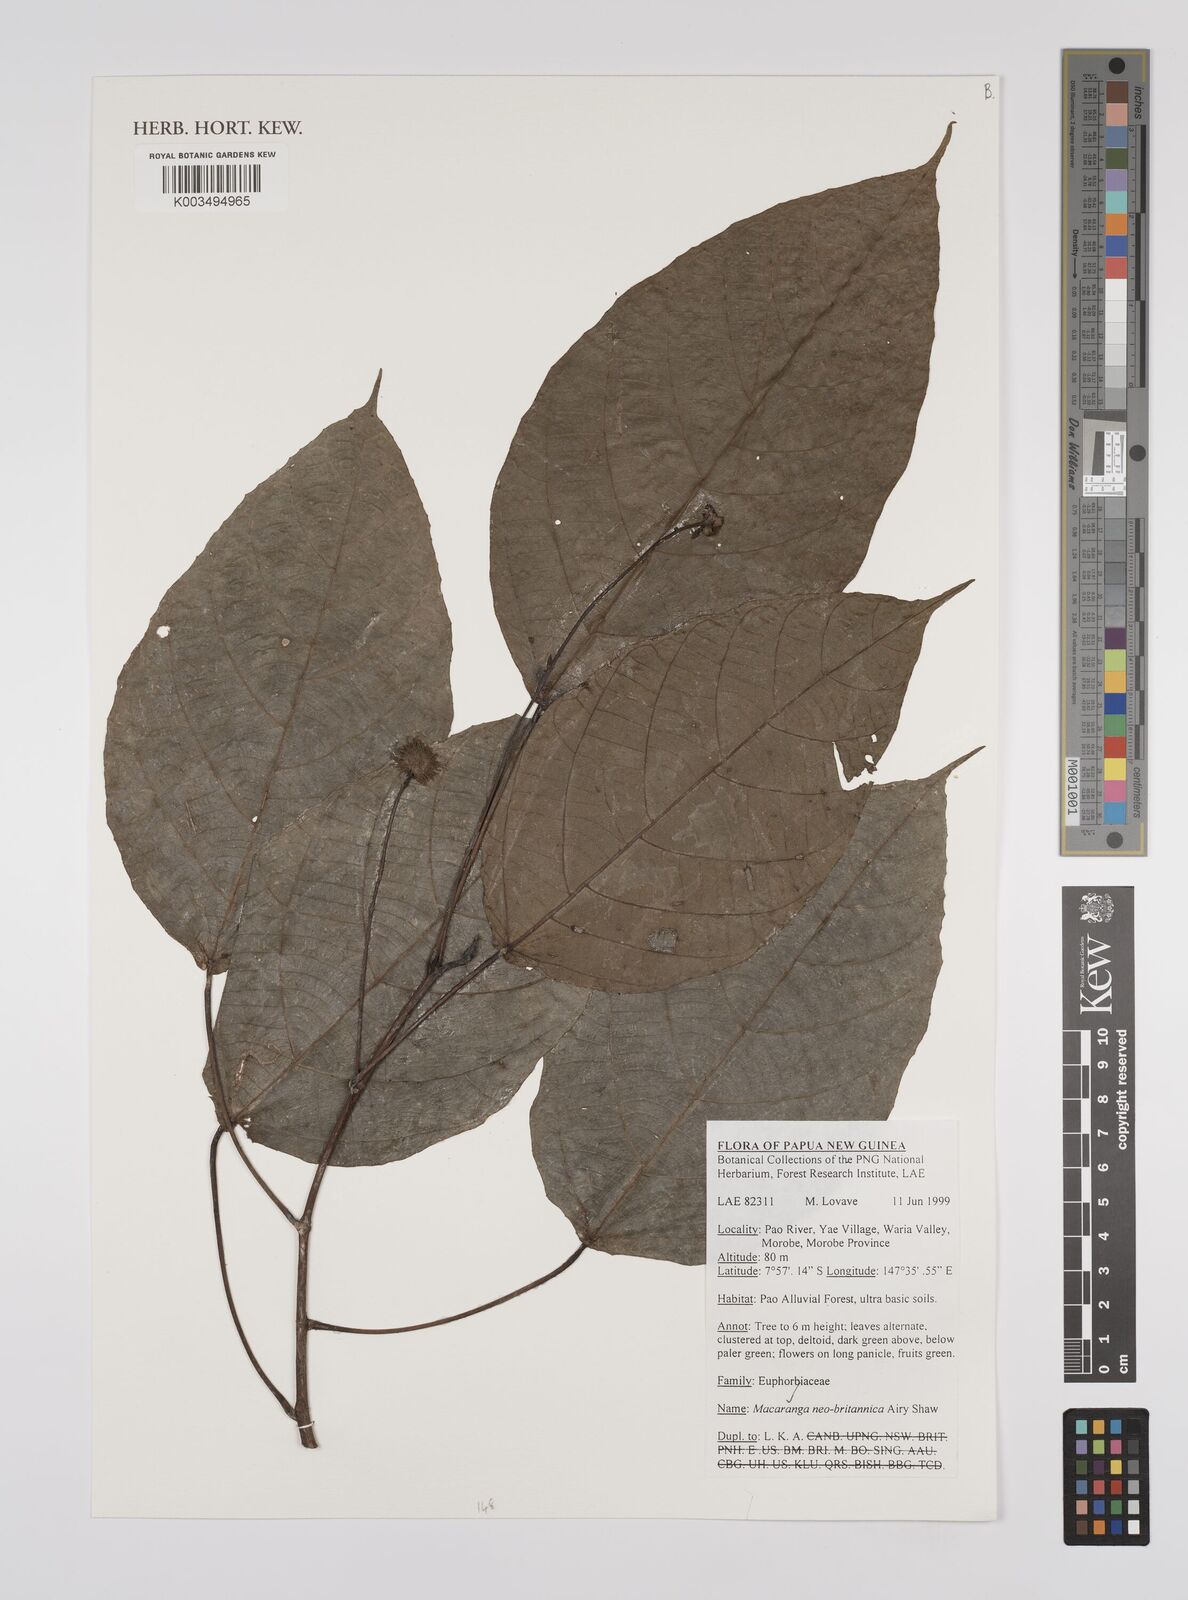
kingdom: Plantae
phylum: Tracheophyta
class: Magnoliopsida
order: Malpighiales
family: Euphorbiaceae
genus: Macaranga
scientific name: Macaranga neobritannica
